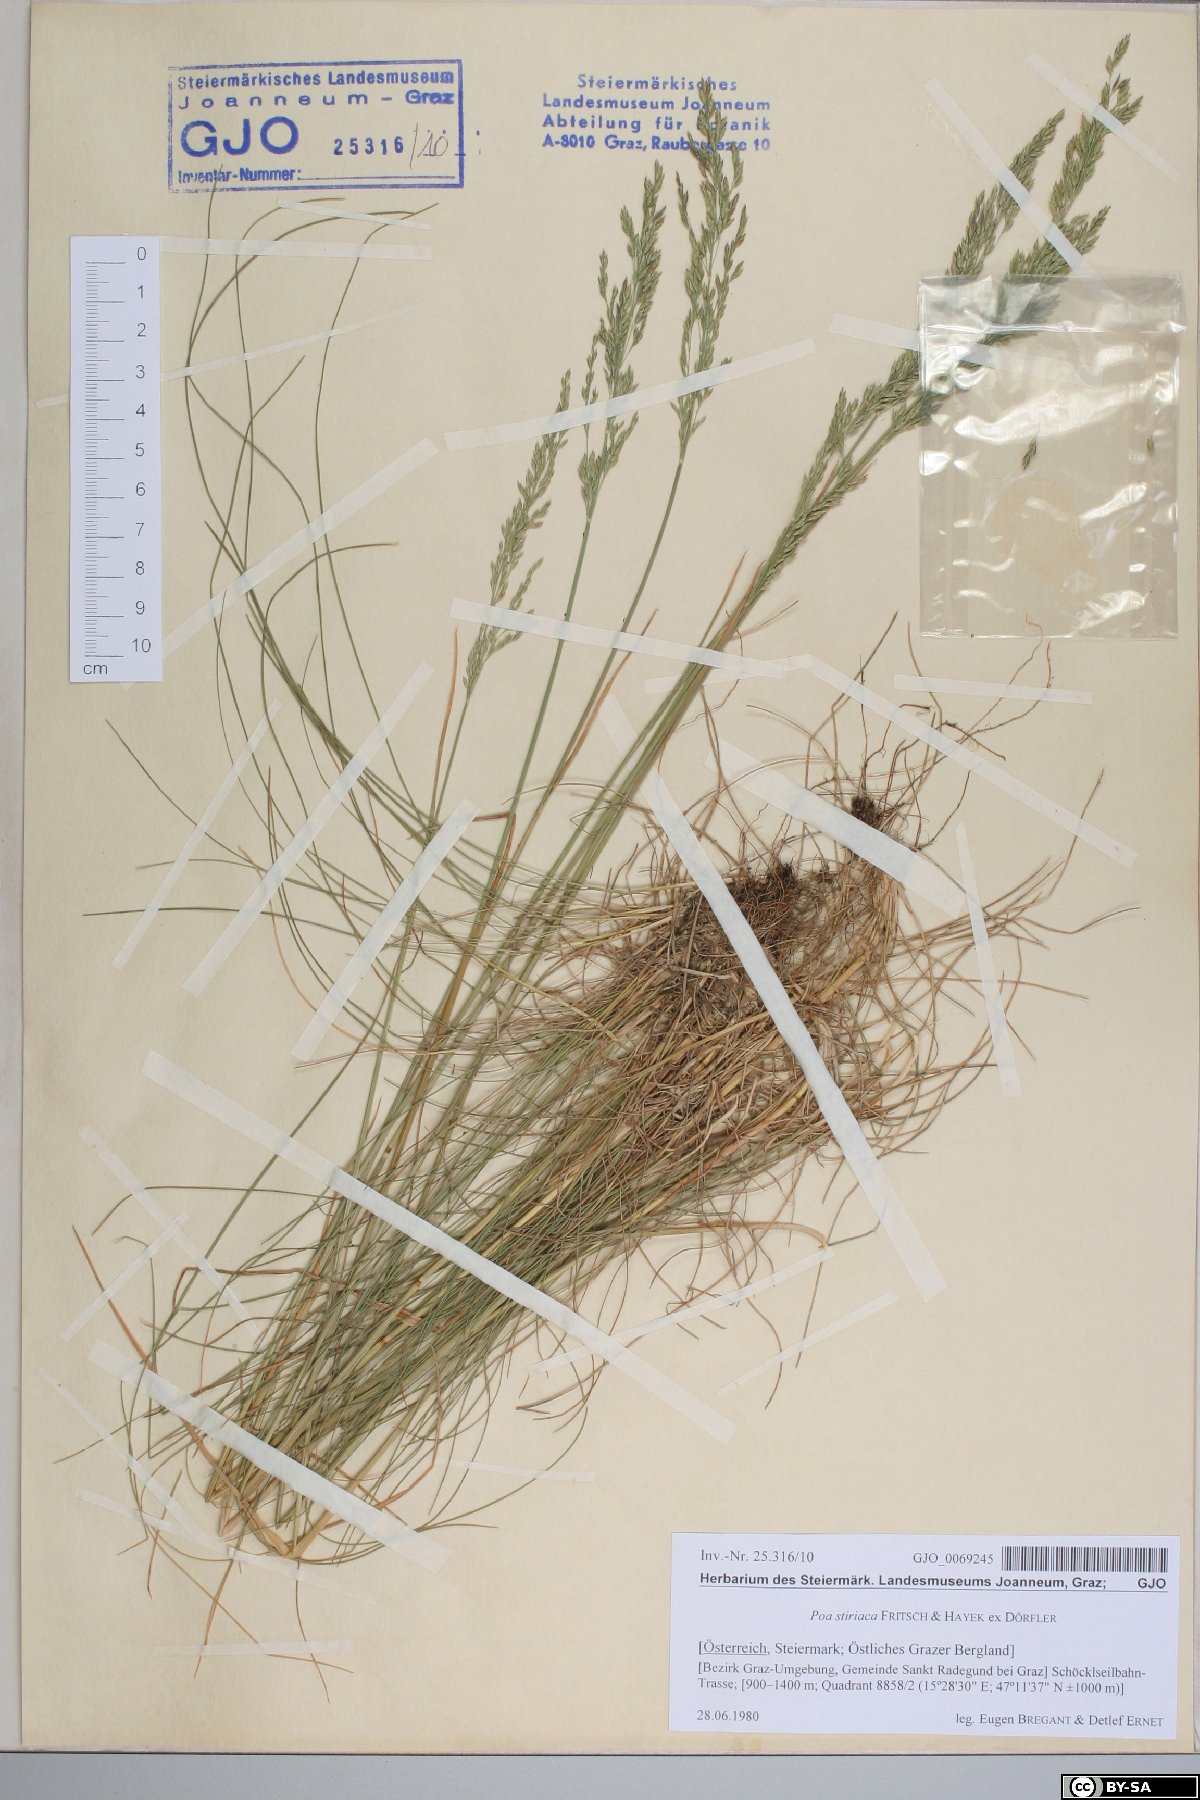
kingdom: Plantae
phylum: Tracheophyta
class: Liliopsida
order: Poales
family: Poaceae
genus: Poa
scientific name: Poa stiriaca
